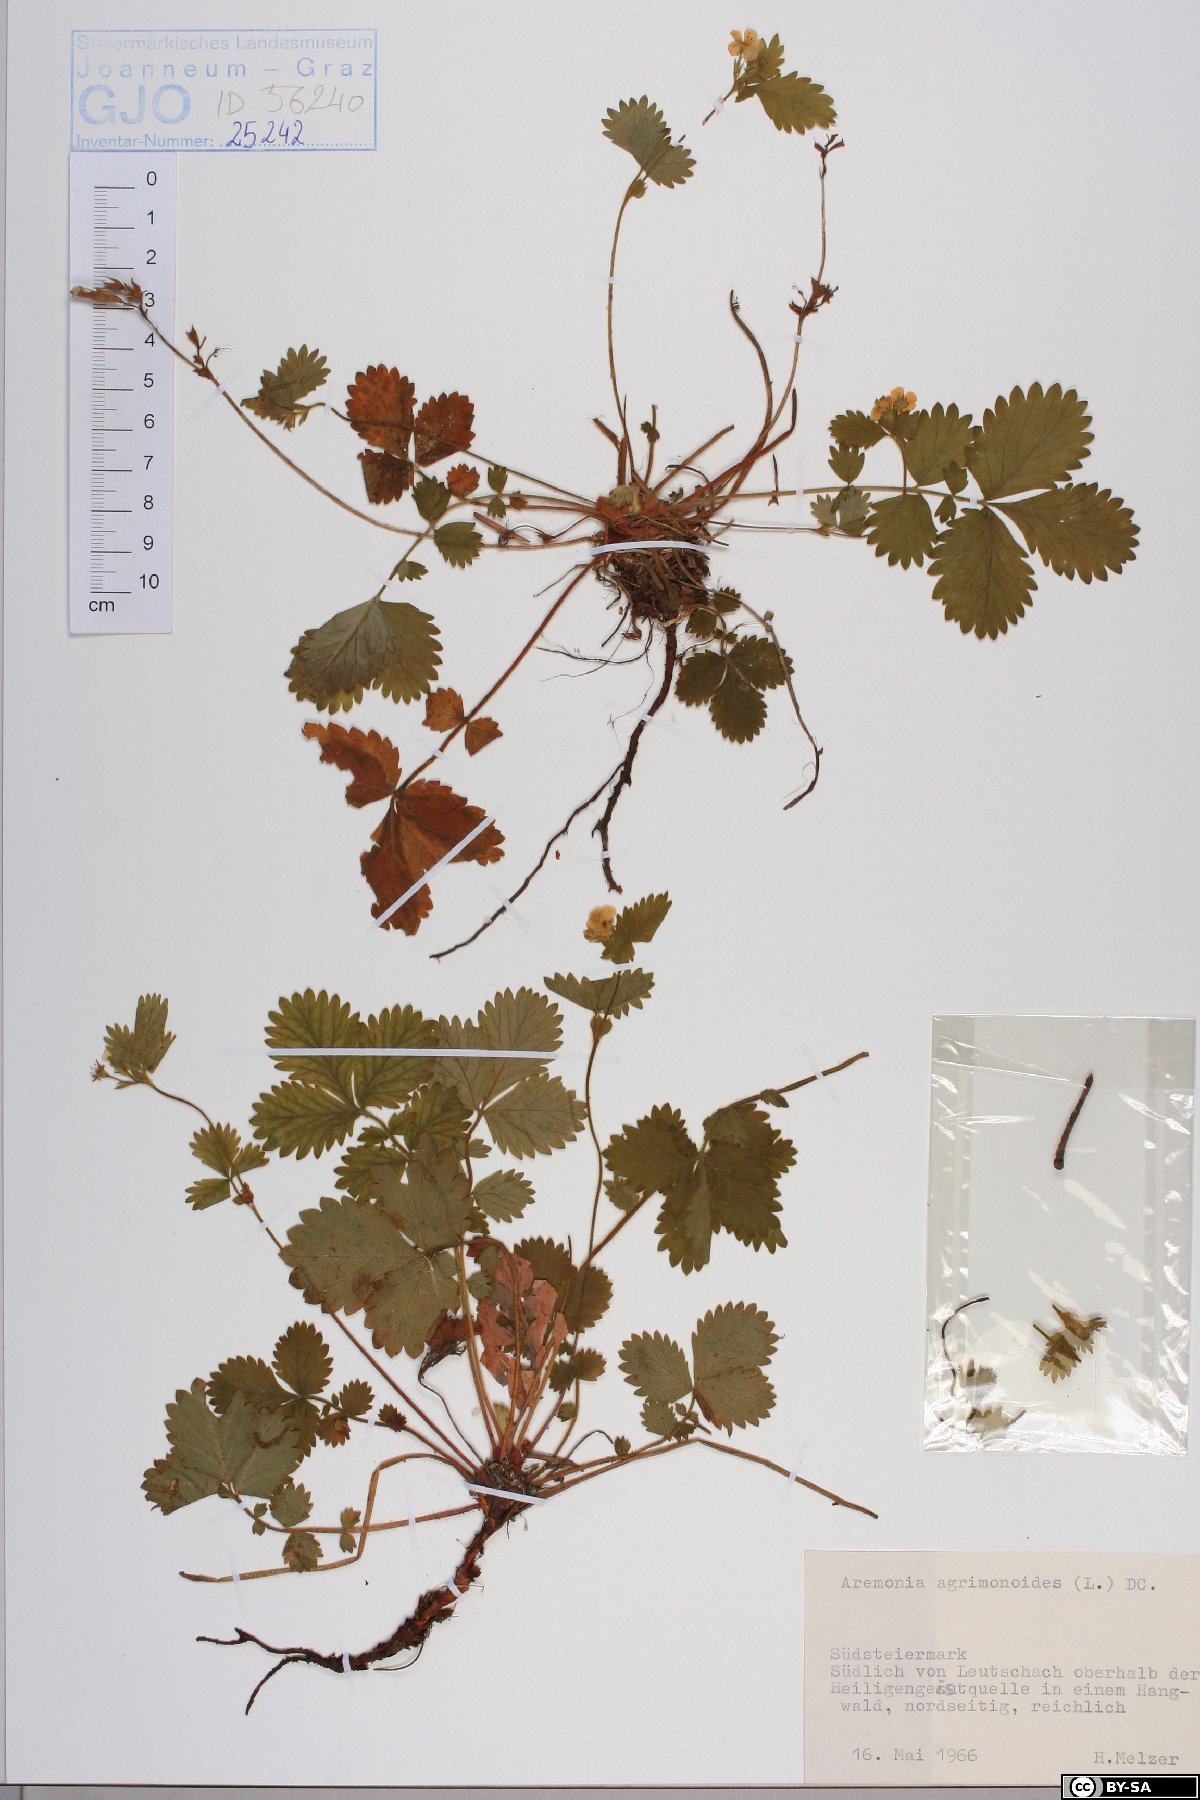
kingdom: Plantae
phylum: Tracheophyta
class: Magnoliopsida
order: Rosales
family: Rosaceae
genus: Aremonia
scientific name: Aremonia agrimonoides
